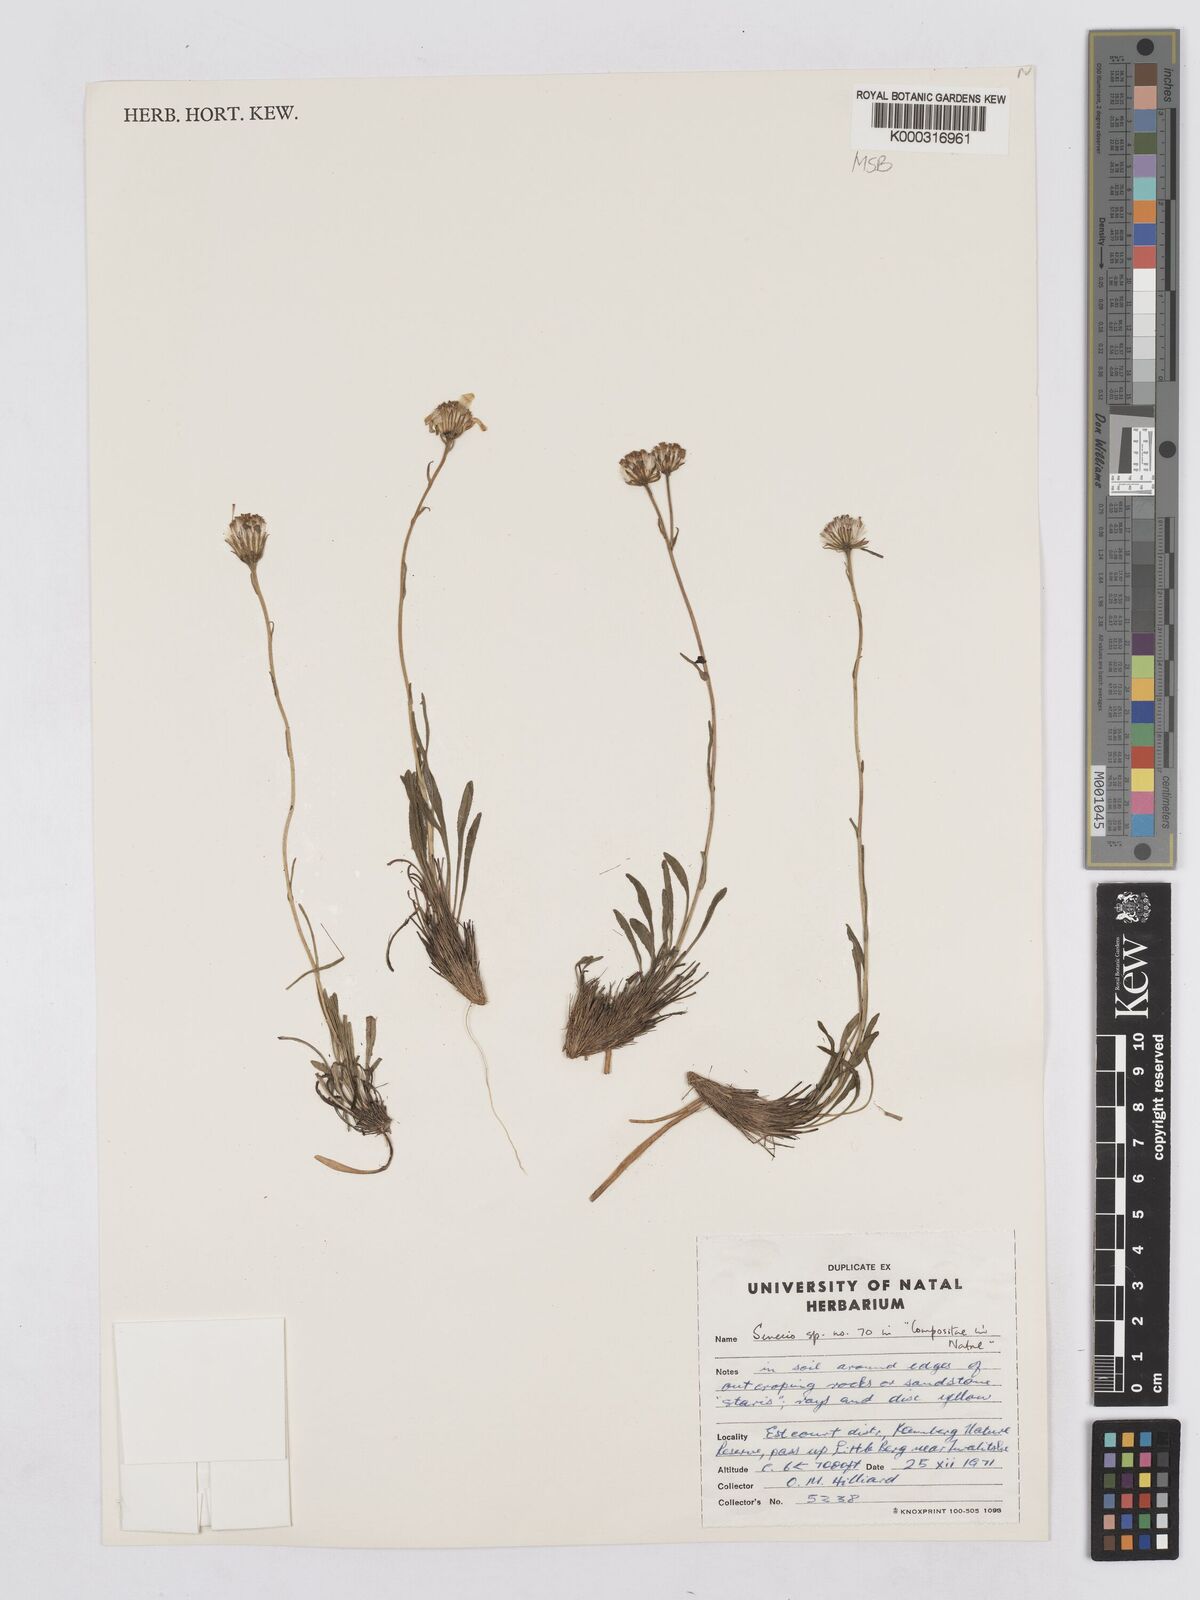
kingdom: Plantae
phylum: Tracheophyta
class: Magnoliopsida
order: Asterales
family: Asteraceae
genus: Senecio
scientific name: Senecio cristimontanus
